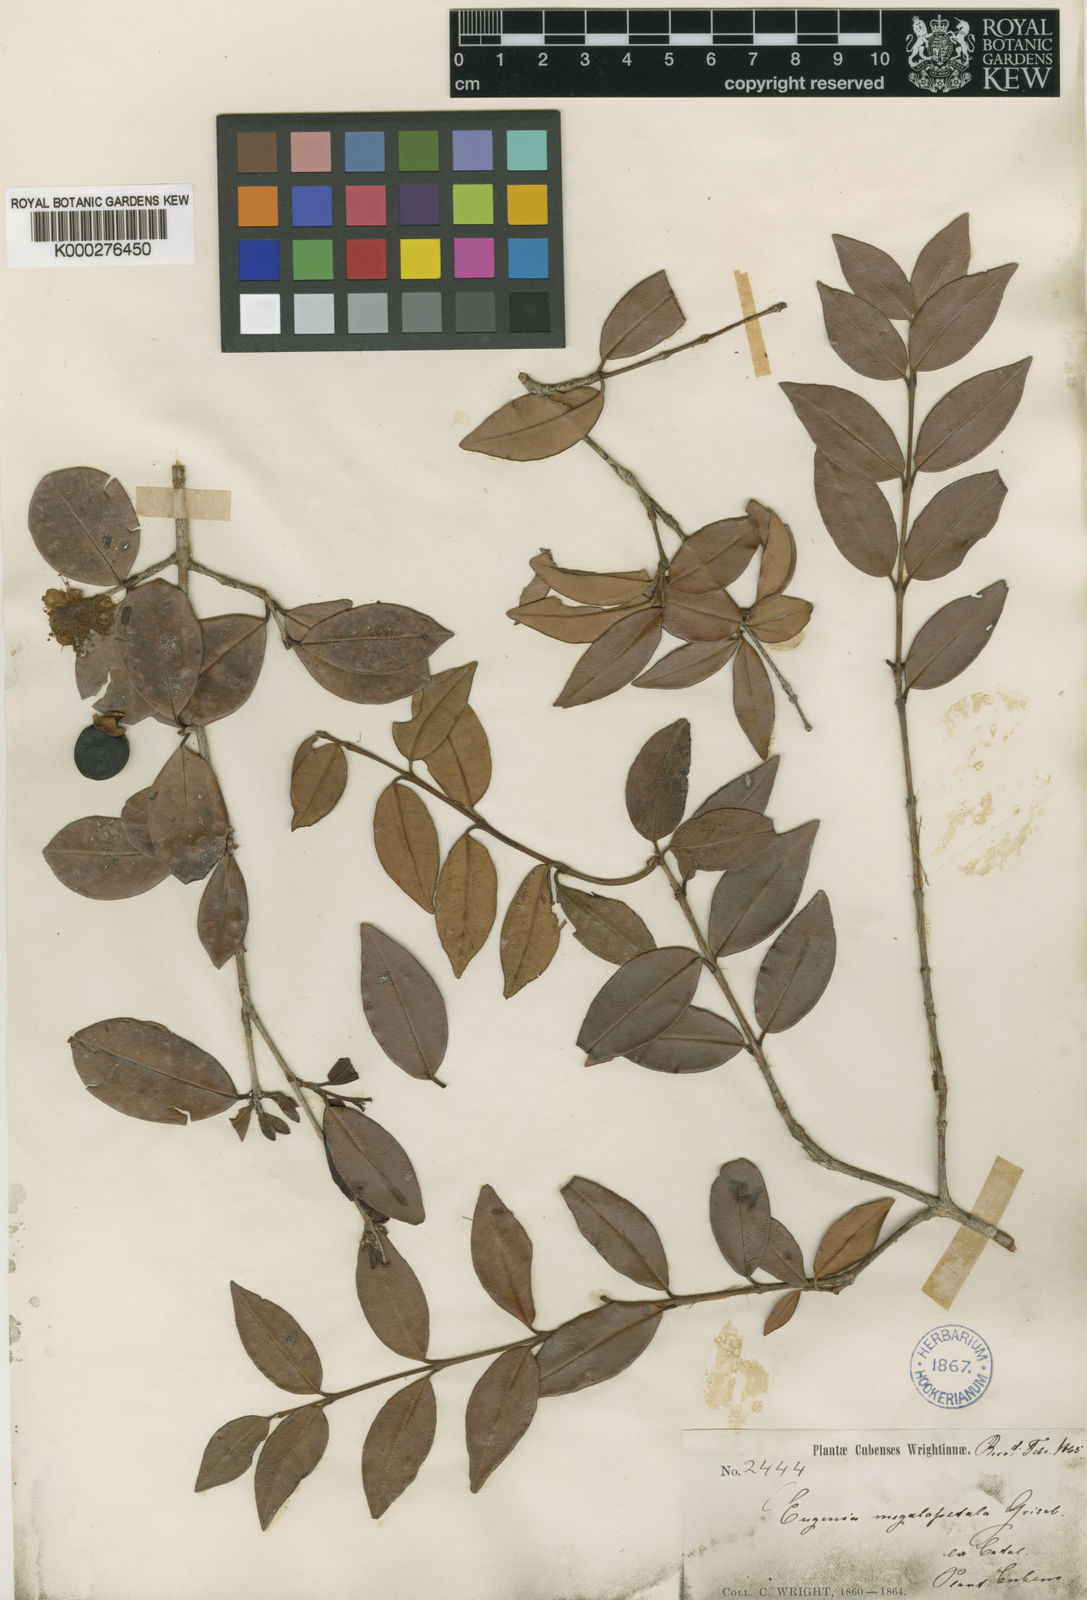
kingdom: Plantae
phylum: Tracheophyta
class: Magnoliopsida
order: Myrtales
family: Myrtaceae
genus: Eugenia
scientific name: Eugenia megalopetala
